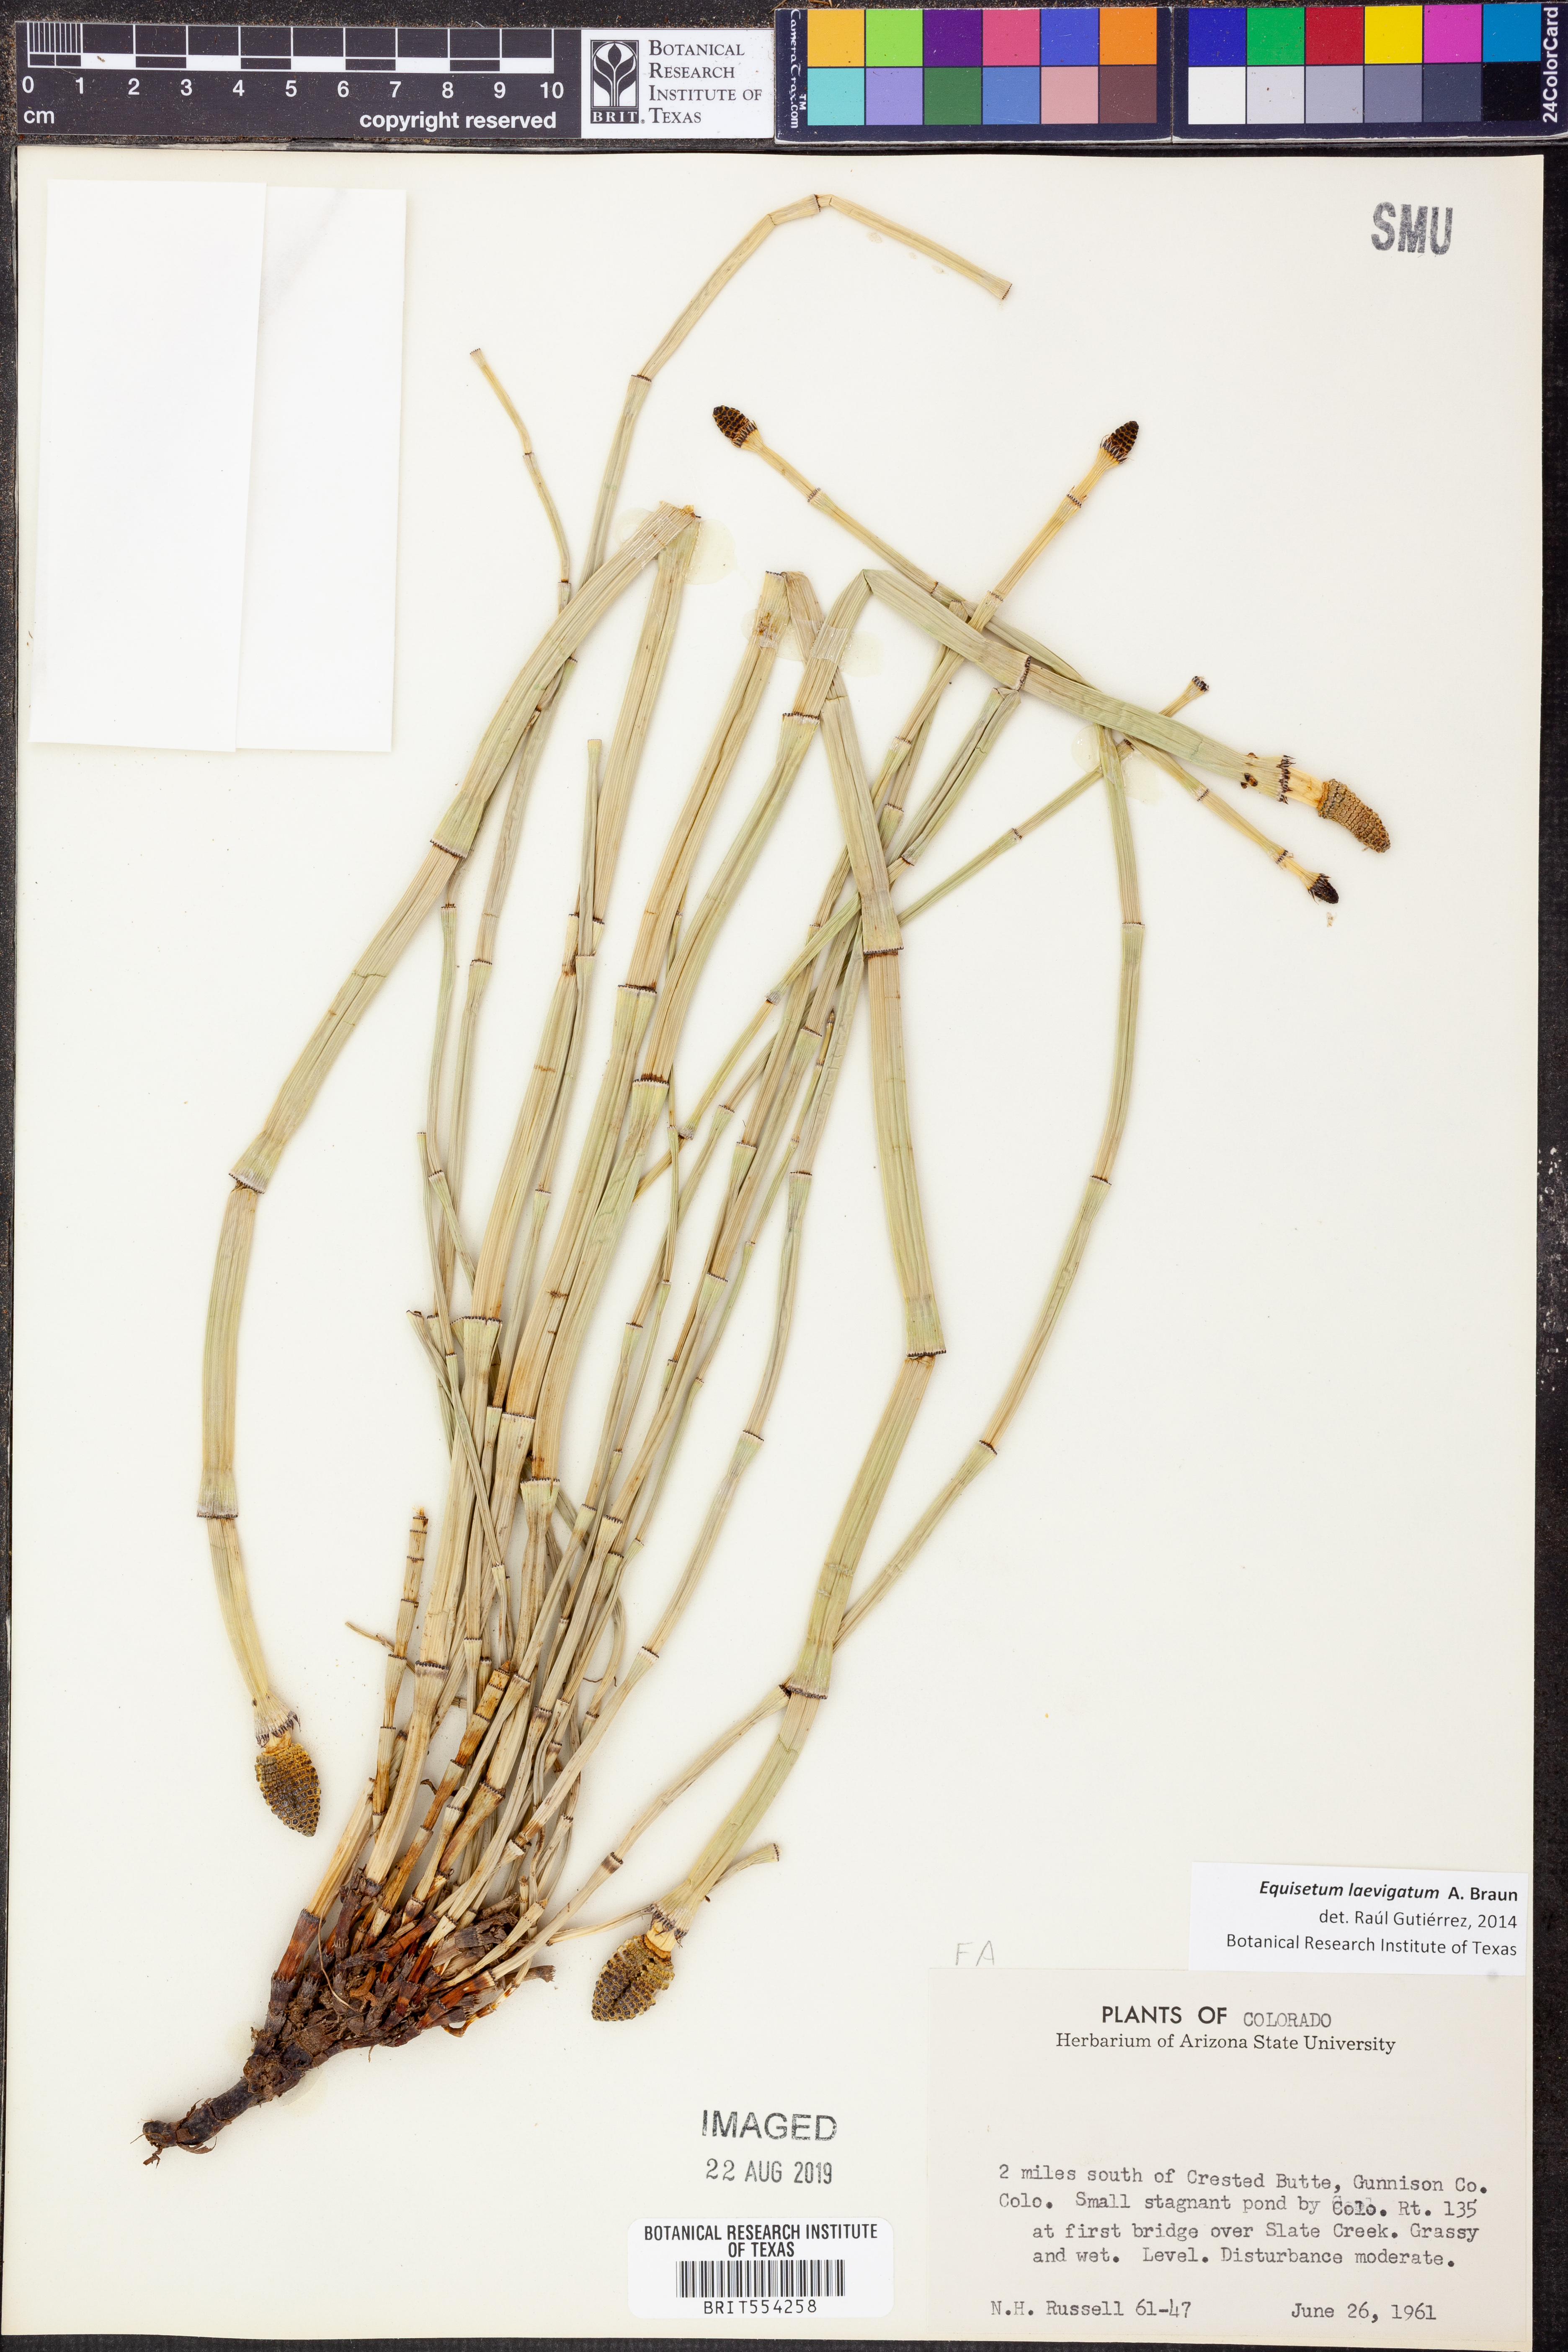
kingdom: Plantae
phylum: Tracheophyta
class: Polypodiopsida
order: Equisetales
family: Equisetaceae
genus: Equisetum
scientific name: Equisetum laevigatum
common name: Smooth scouring-rush
